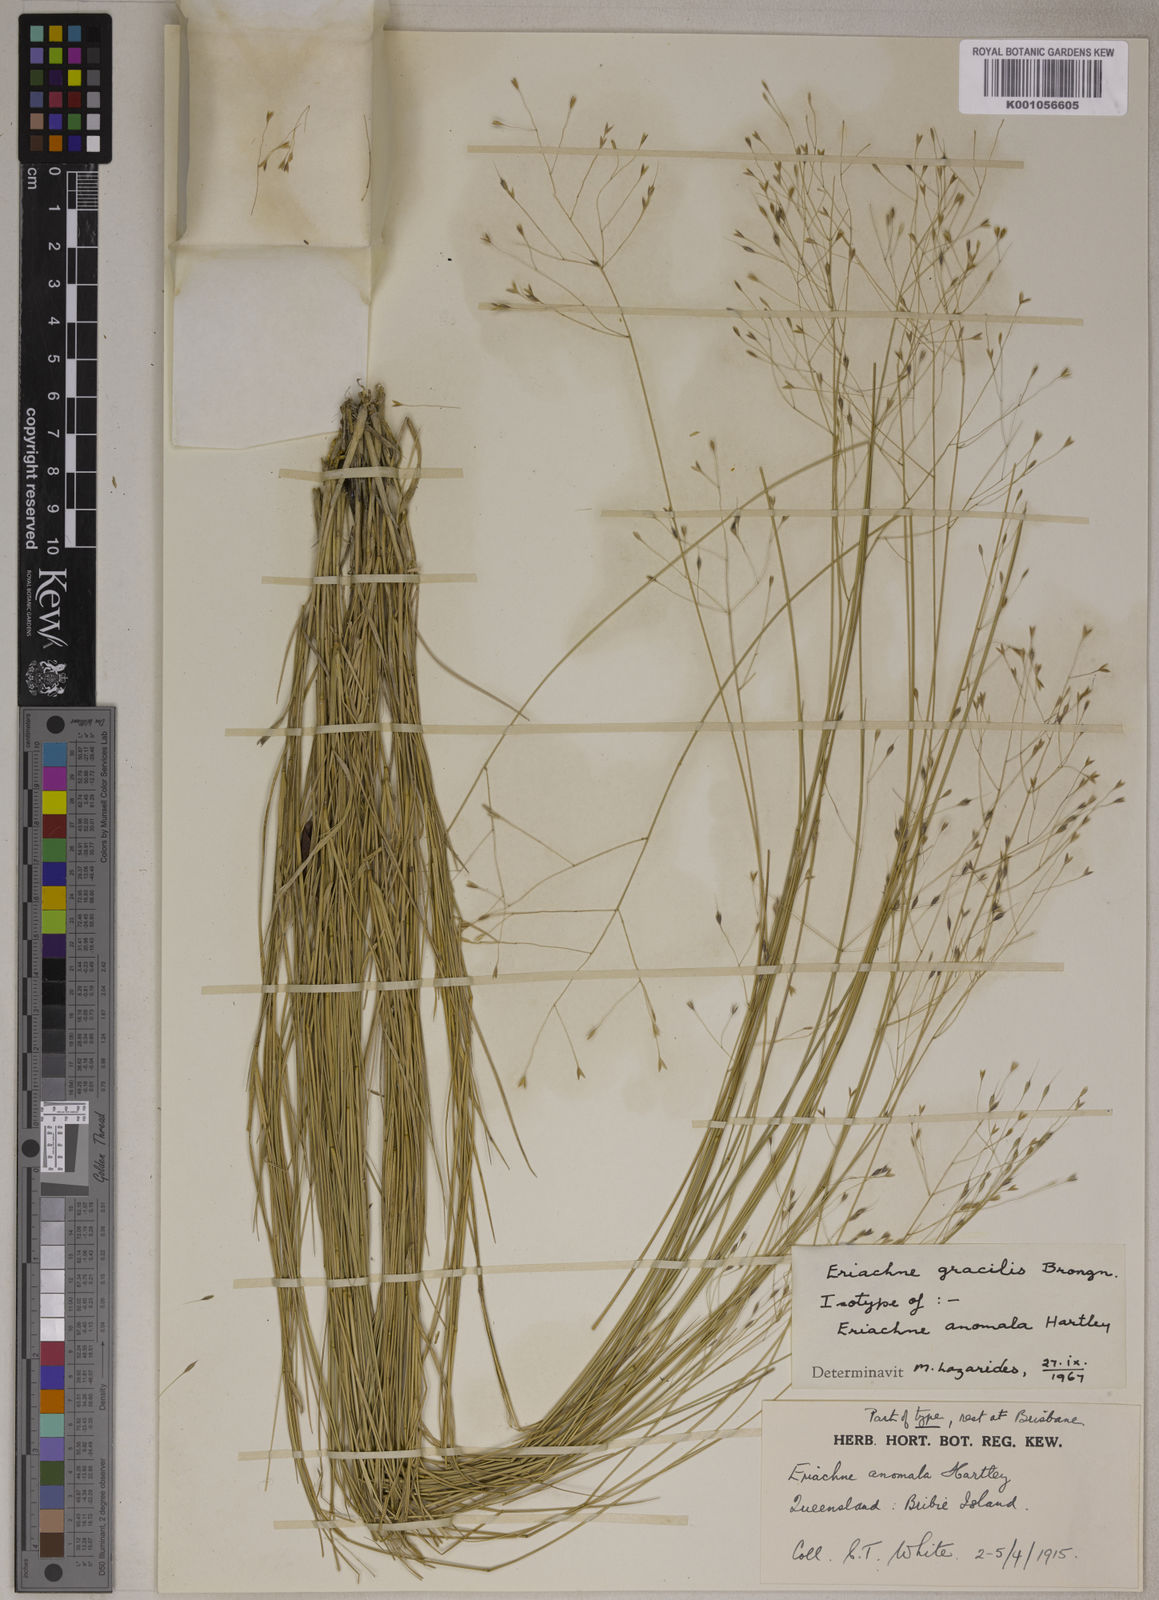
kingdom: Plantae
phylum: Tracheophyta
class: Liliopsida
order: Poales
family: Poaceae
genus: Eriachne
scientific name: Eriachne pallescens
